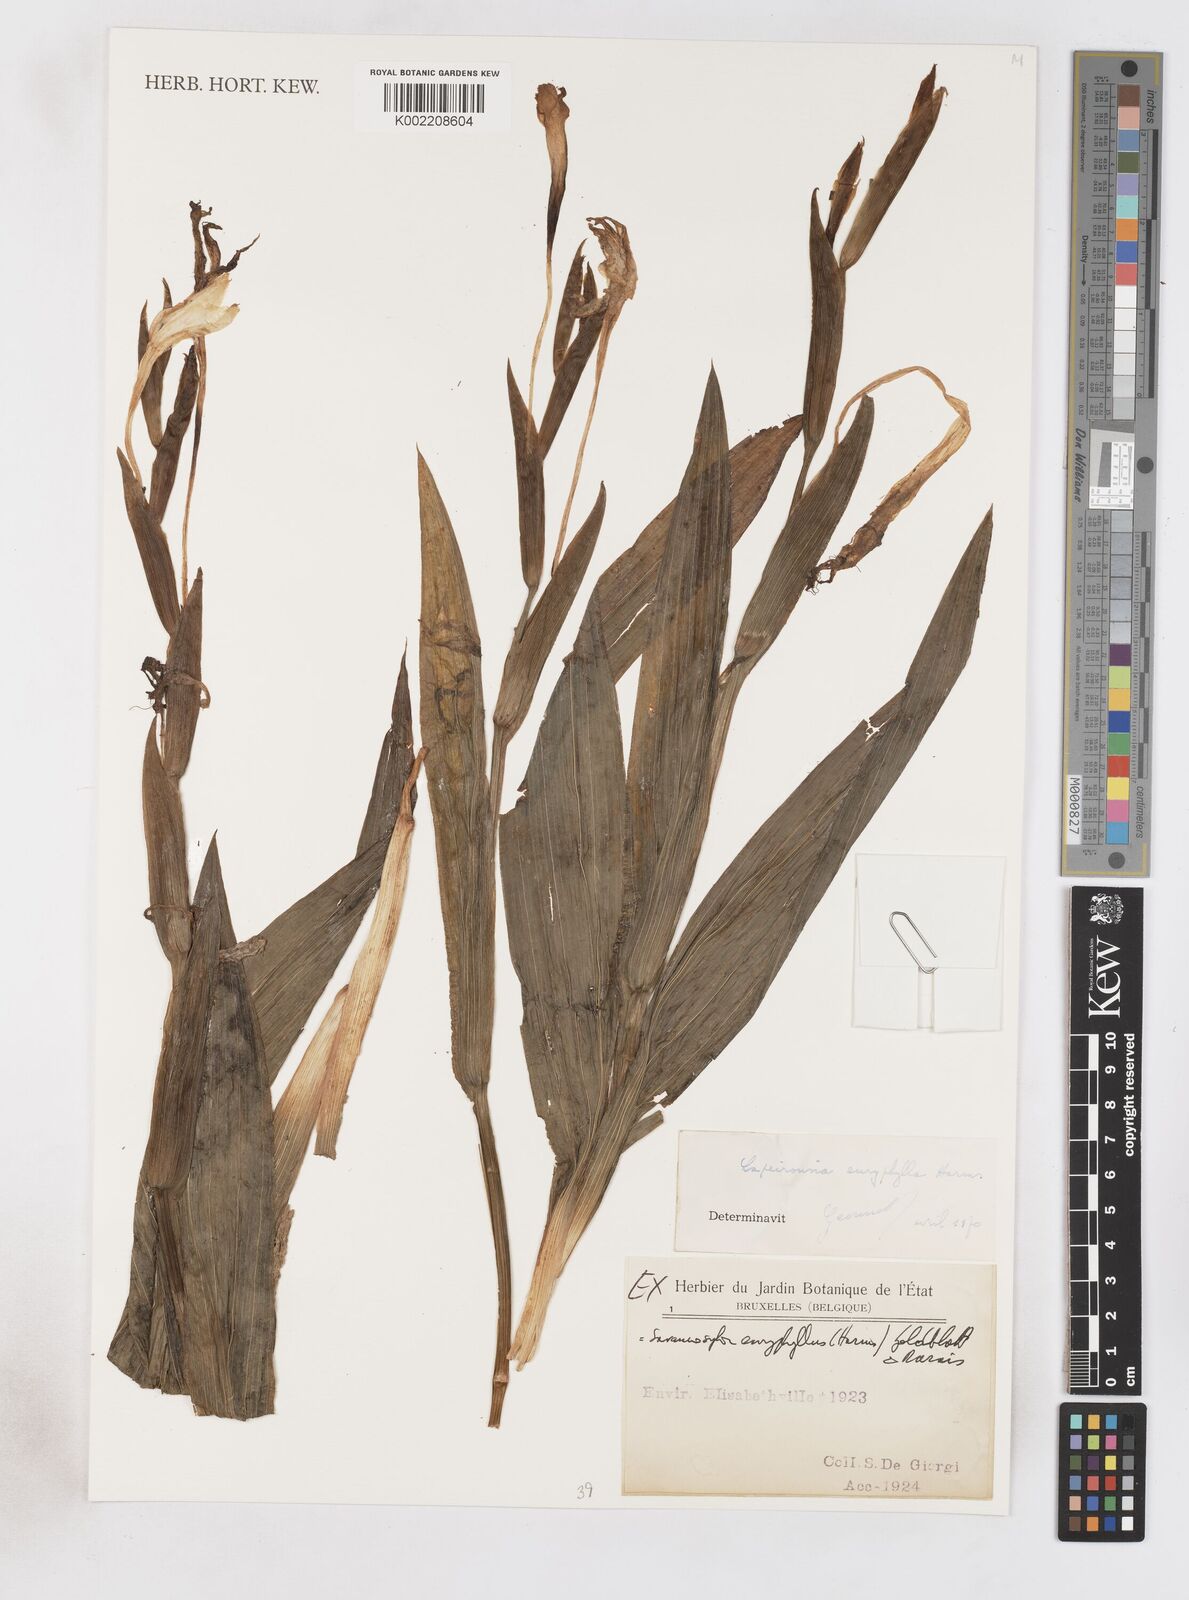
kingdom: Plantae
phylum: Tracheophyta
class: Liliopsida
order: Asparagales
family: Iridaceae
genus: Savannosiphon
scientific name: Savannosiphon euryphylla
